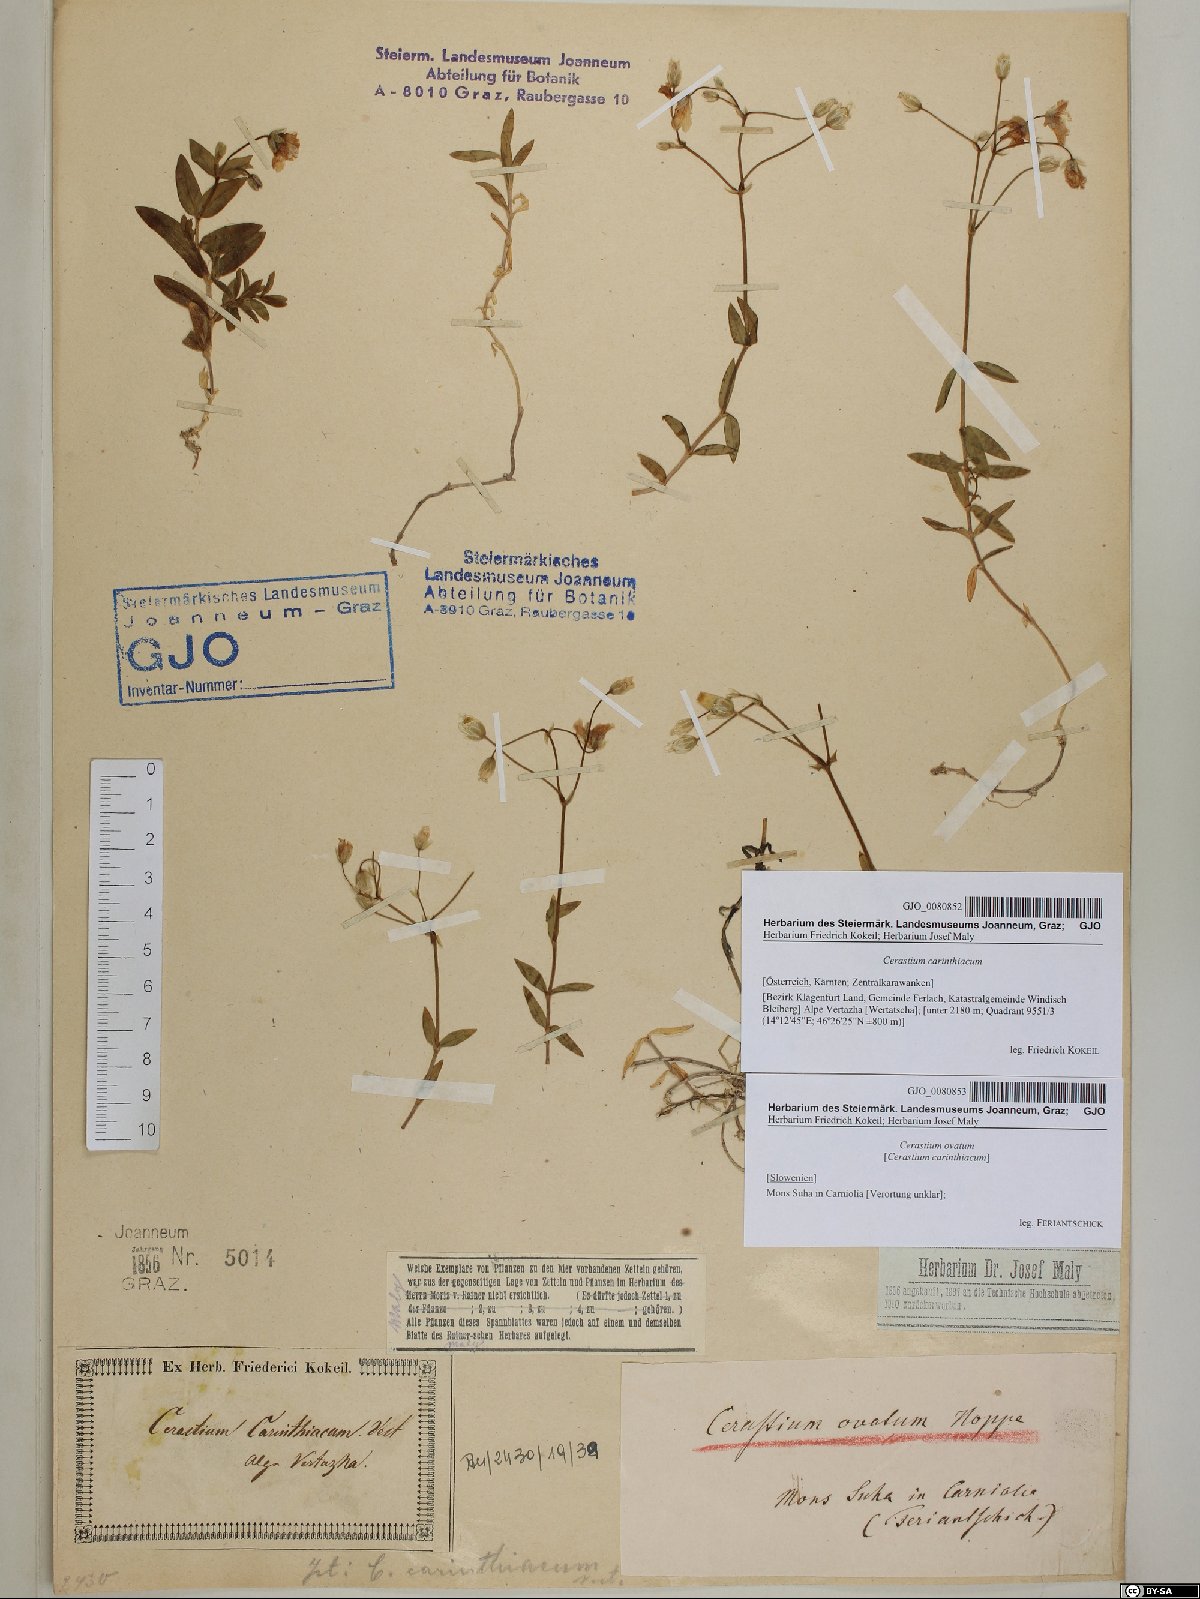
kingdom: Plantae
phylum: Tracheophyta
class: Magnoliopsida
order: Caryophyllales
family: Caryophyllaceae
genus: Cerastium
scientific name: Cerastium carinthiacum
